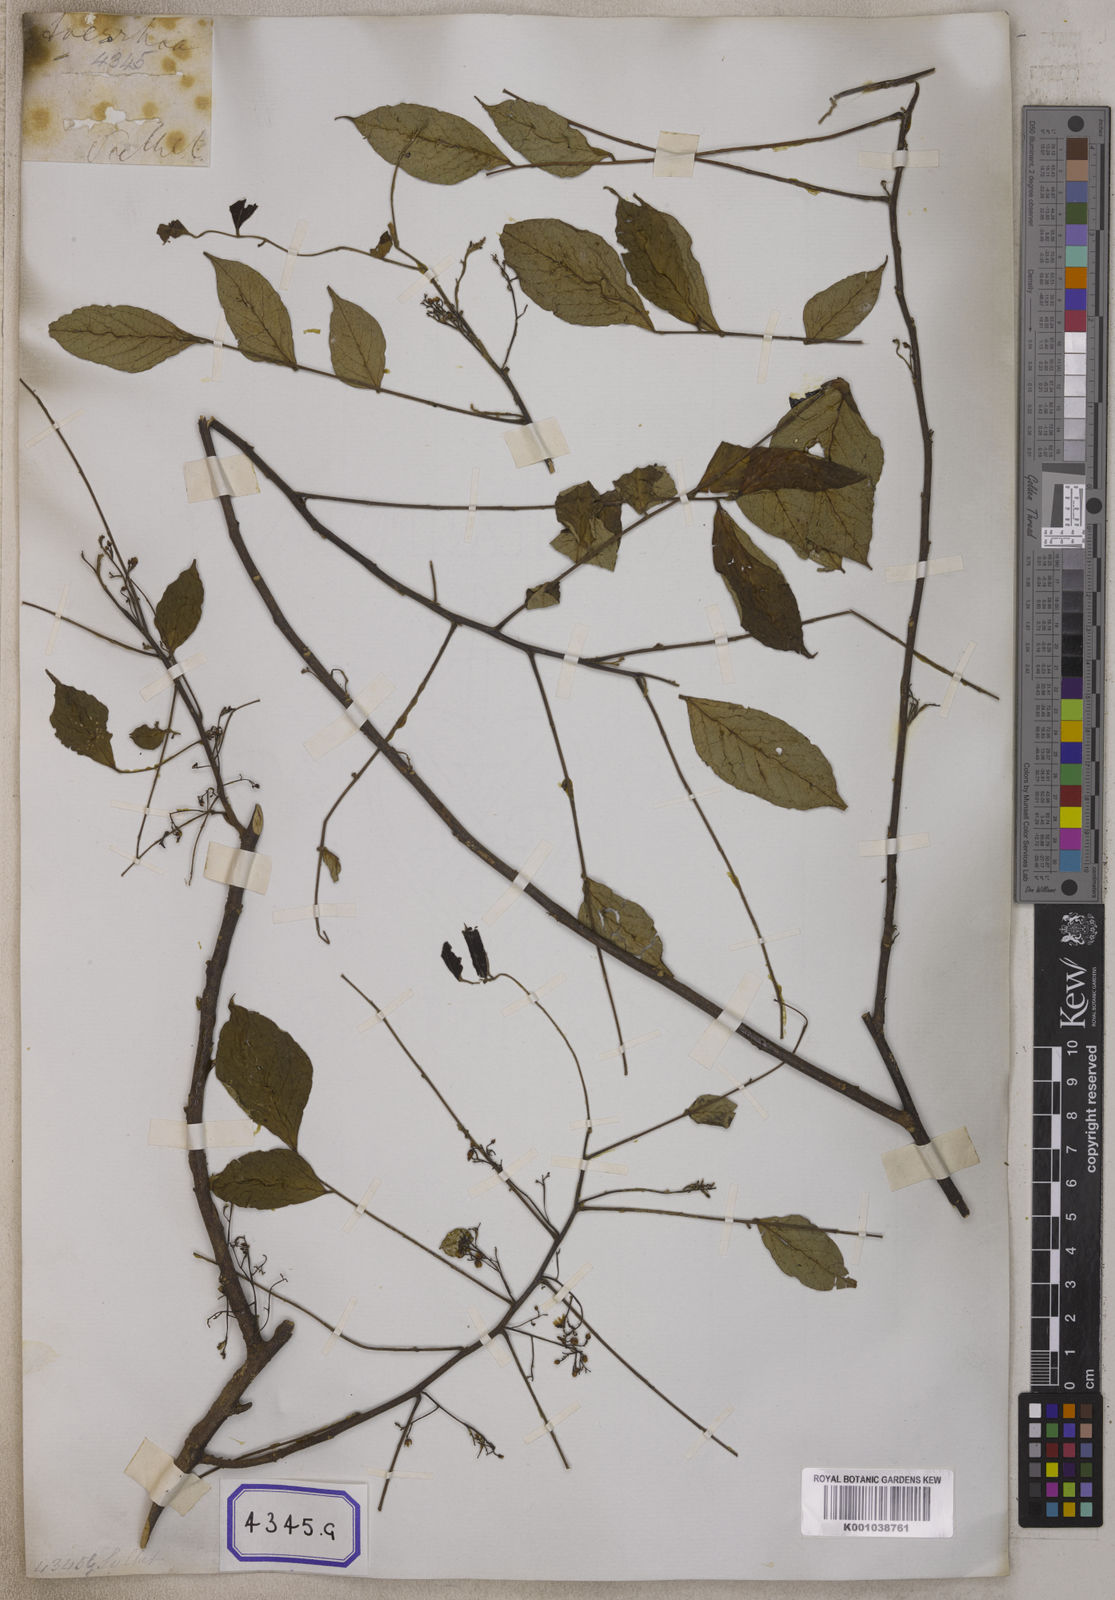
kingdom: Plantae
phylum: Tracheophyta
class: Magnoliopsida
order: Oxalidales
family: Oxalidaceae
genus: Averrhoa
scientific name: Averrhoa carambola
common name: Blimbing
